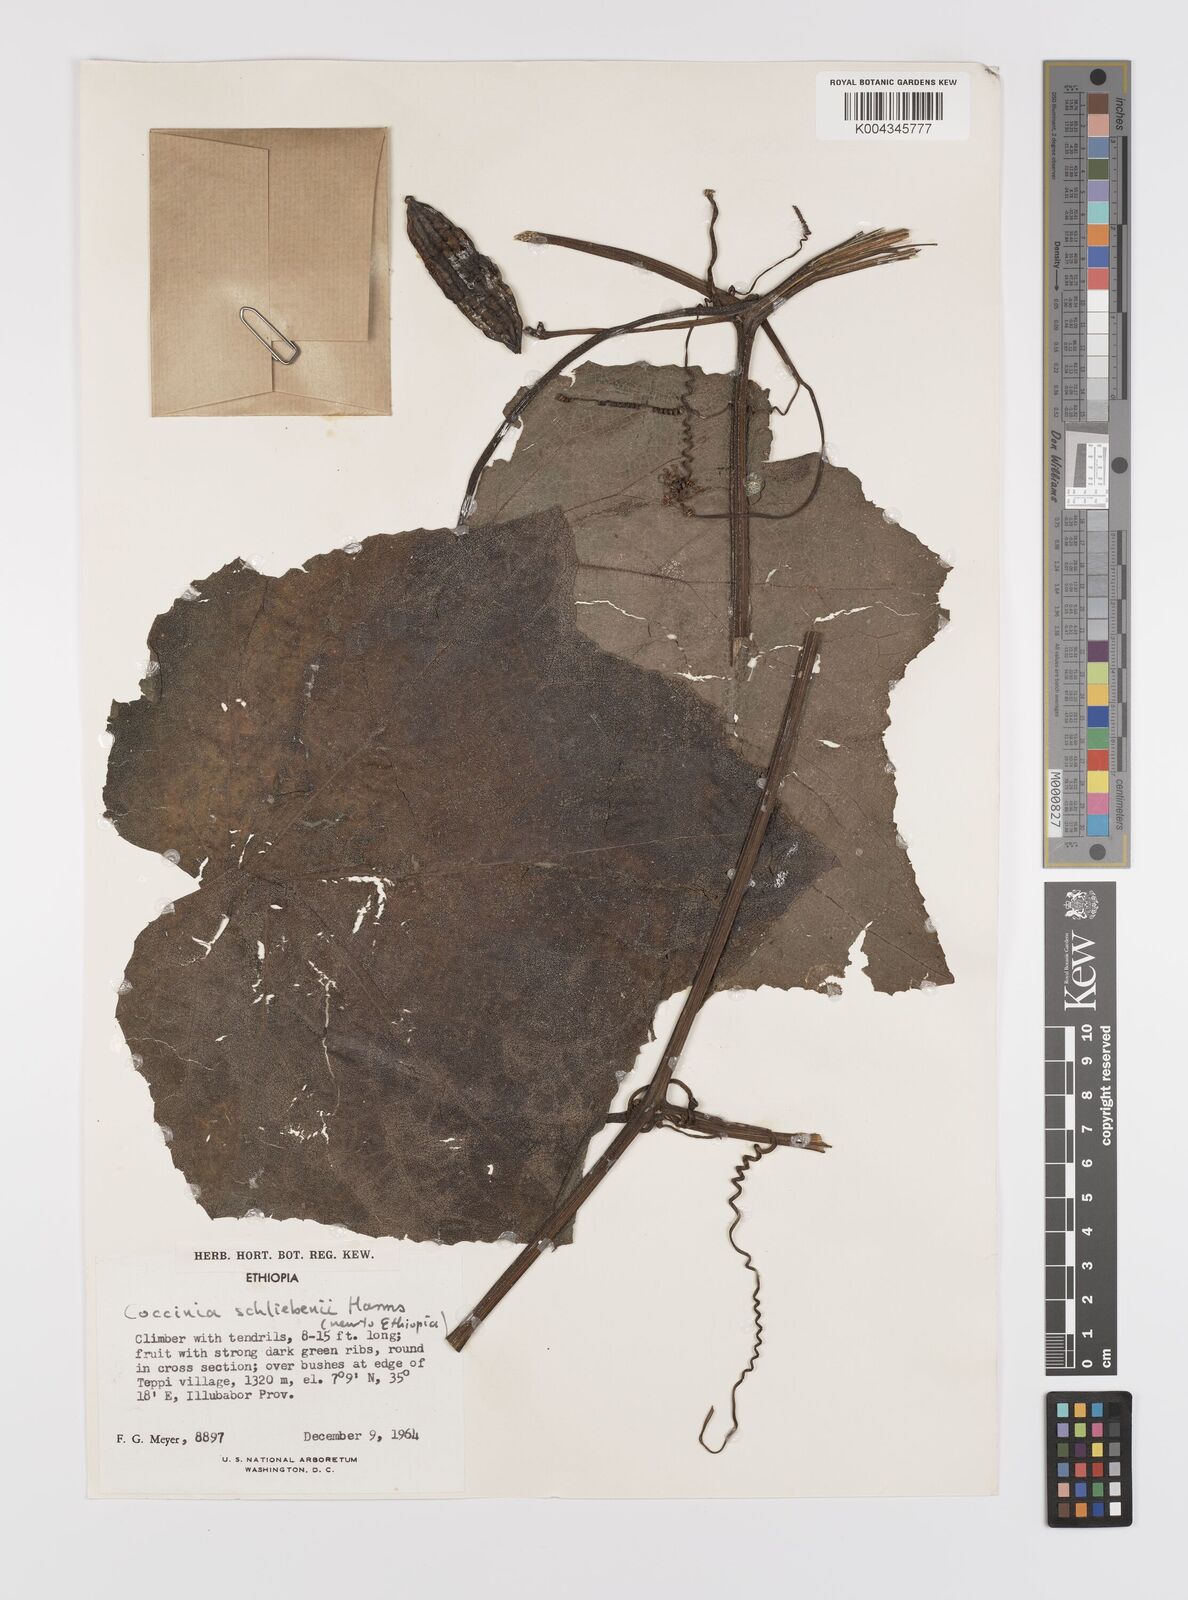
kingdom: Plantae
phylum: Tracheophyta
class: Magnoliopsida
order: Cucurbitales
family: Cucurbitaceae
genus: Coccinia
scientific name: Coccinia schliebenii
